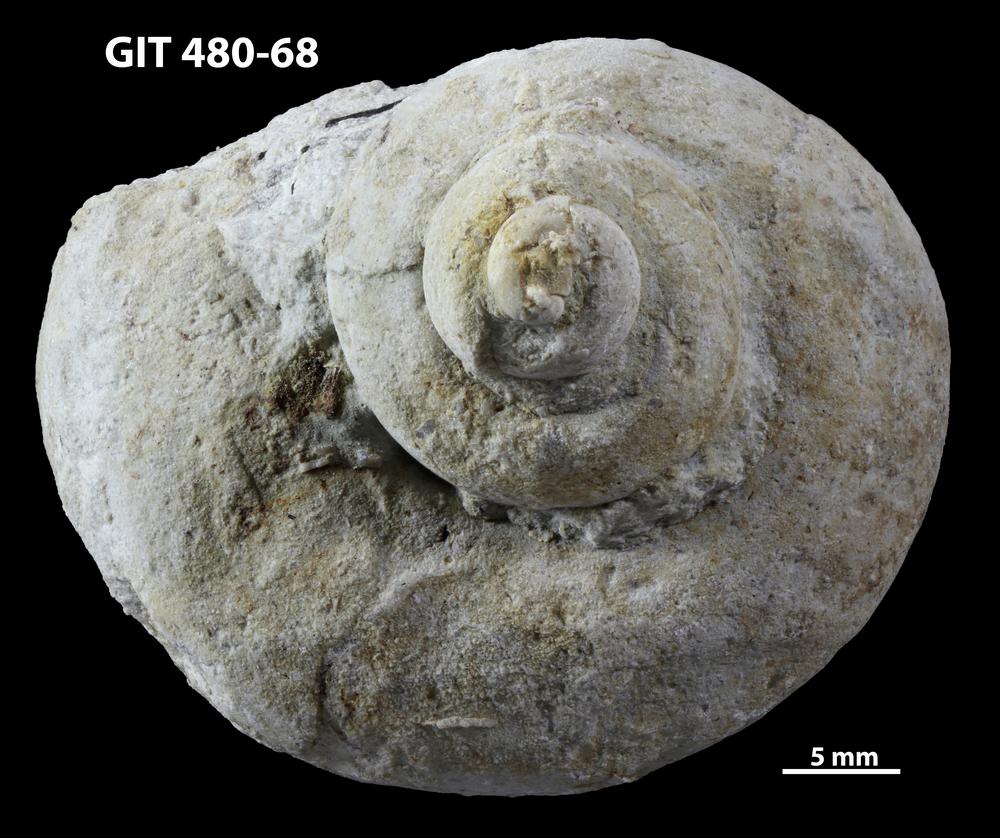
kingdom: Animalia
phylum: Mollusca
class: Gastropoda
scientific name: Gastropoda
